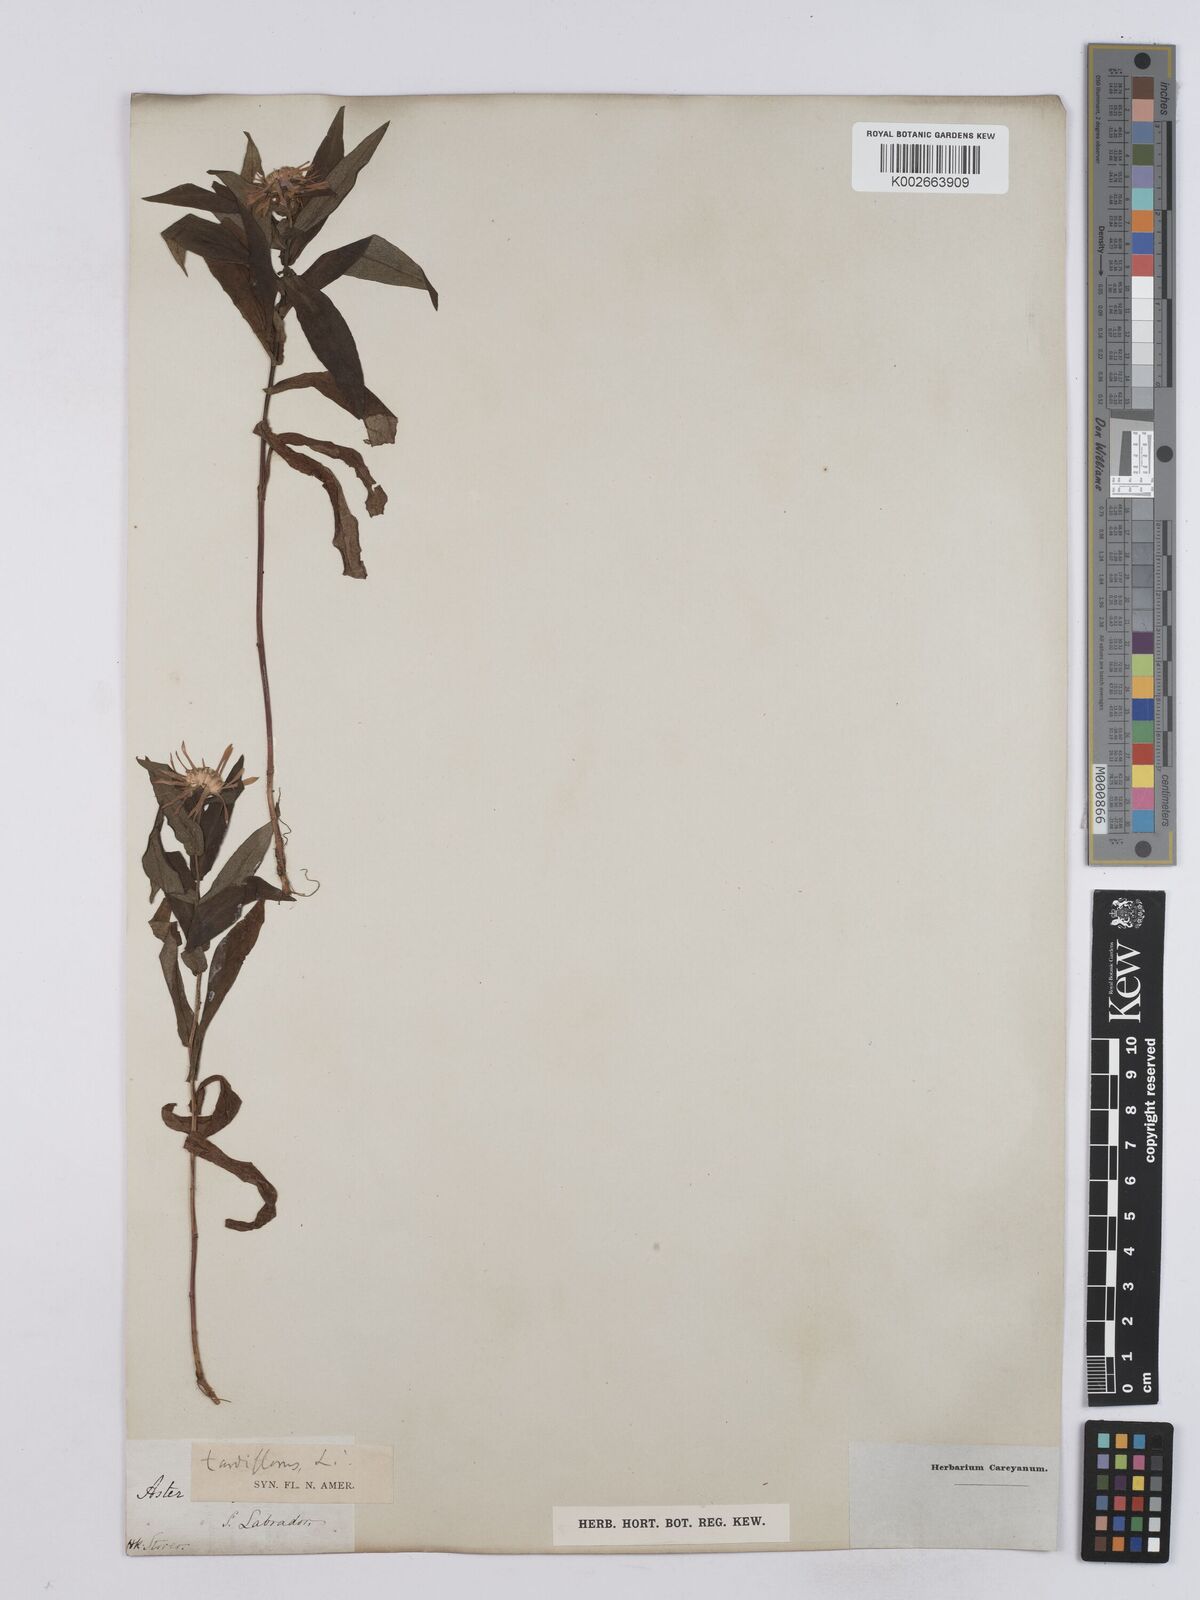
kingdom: Plantae
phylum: Tracheophyta
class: Magnoliopsida
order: Asterales
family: Asteraceae
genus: Aster
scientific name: Aster
